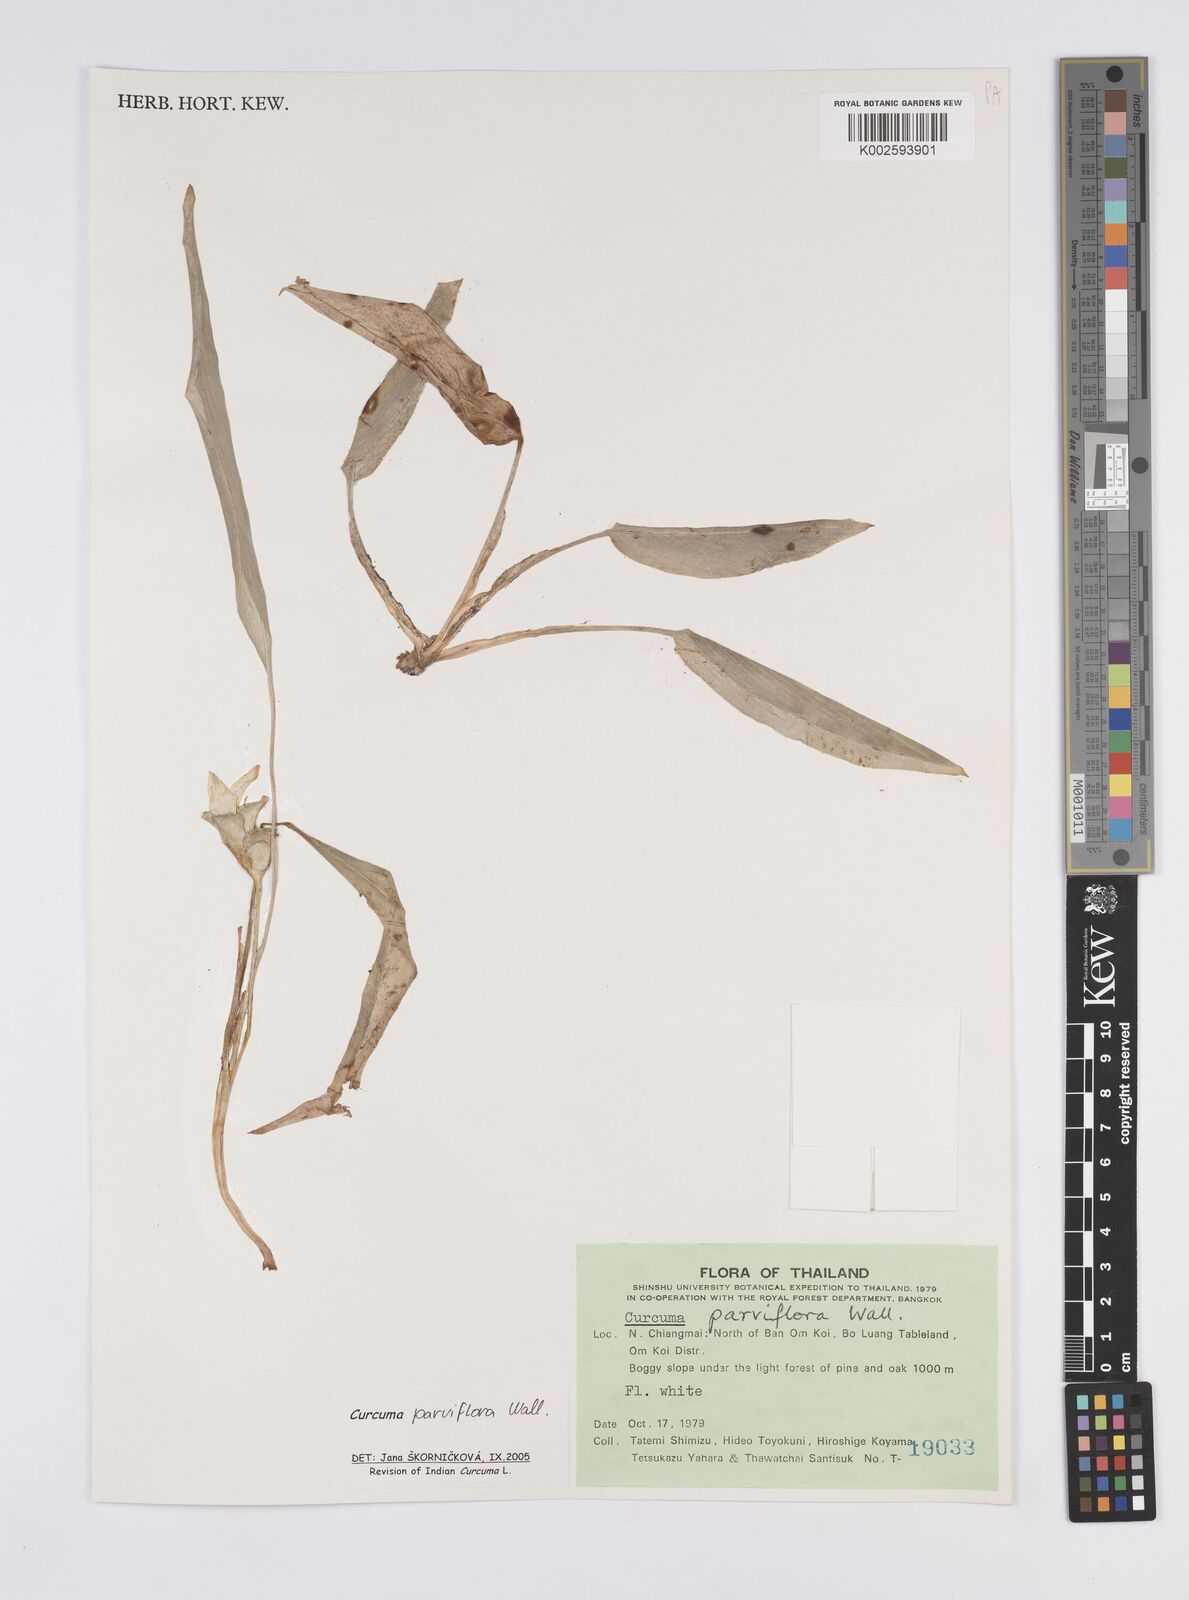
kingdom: Plantae
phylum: Tracheophyta
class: Liliopsida
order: Zingiberales
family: Zingiberaceae
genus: Curcuma
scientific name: Curcuma parviflora
